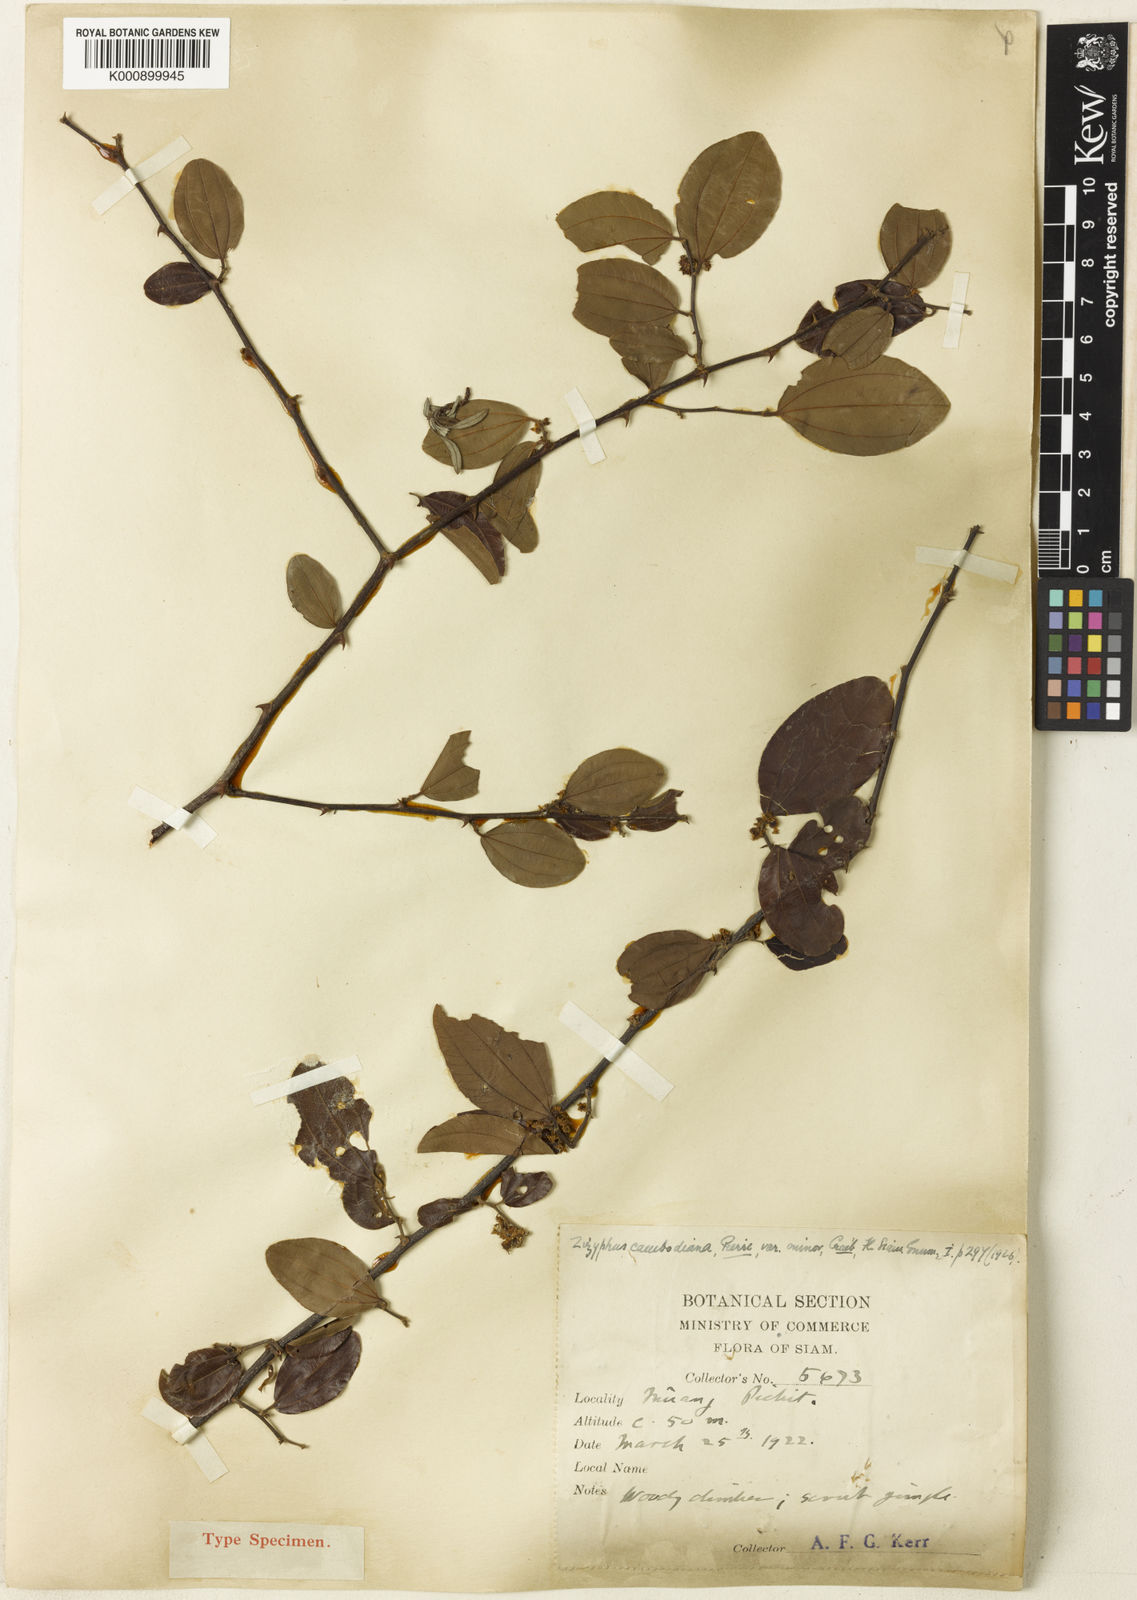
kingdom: Plantae
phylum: Tracheophyta
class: Magnoliopsida
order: Rosales
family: Rhamnaceae
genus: Ziziphus
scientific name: Ziziphus cambodiana
